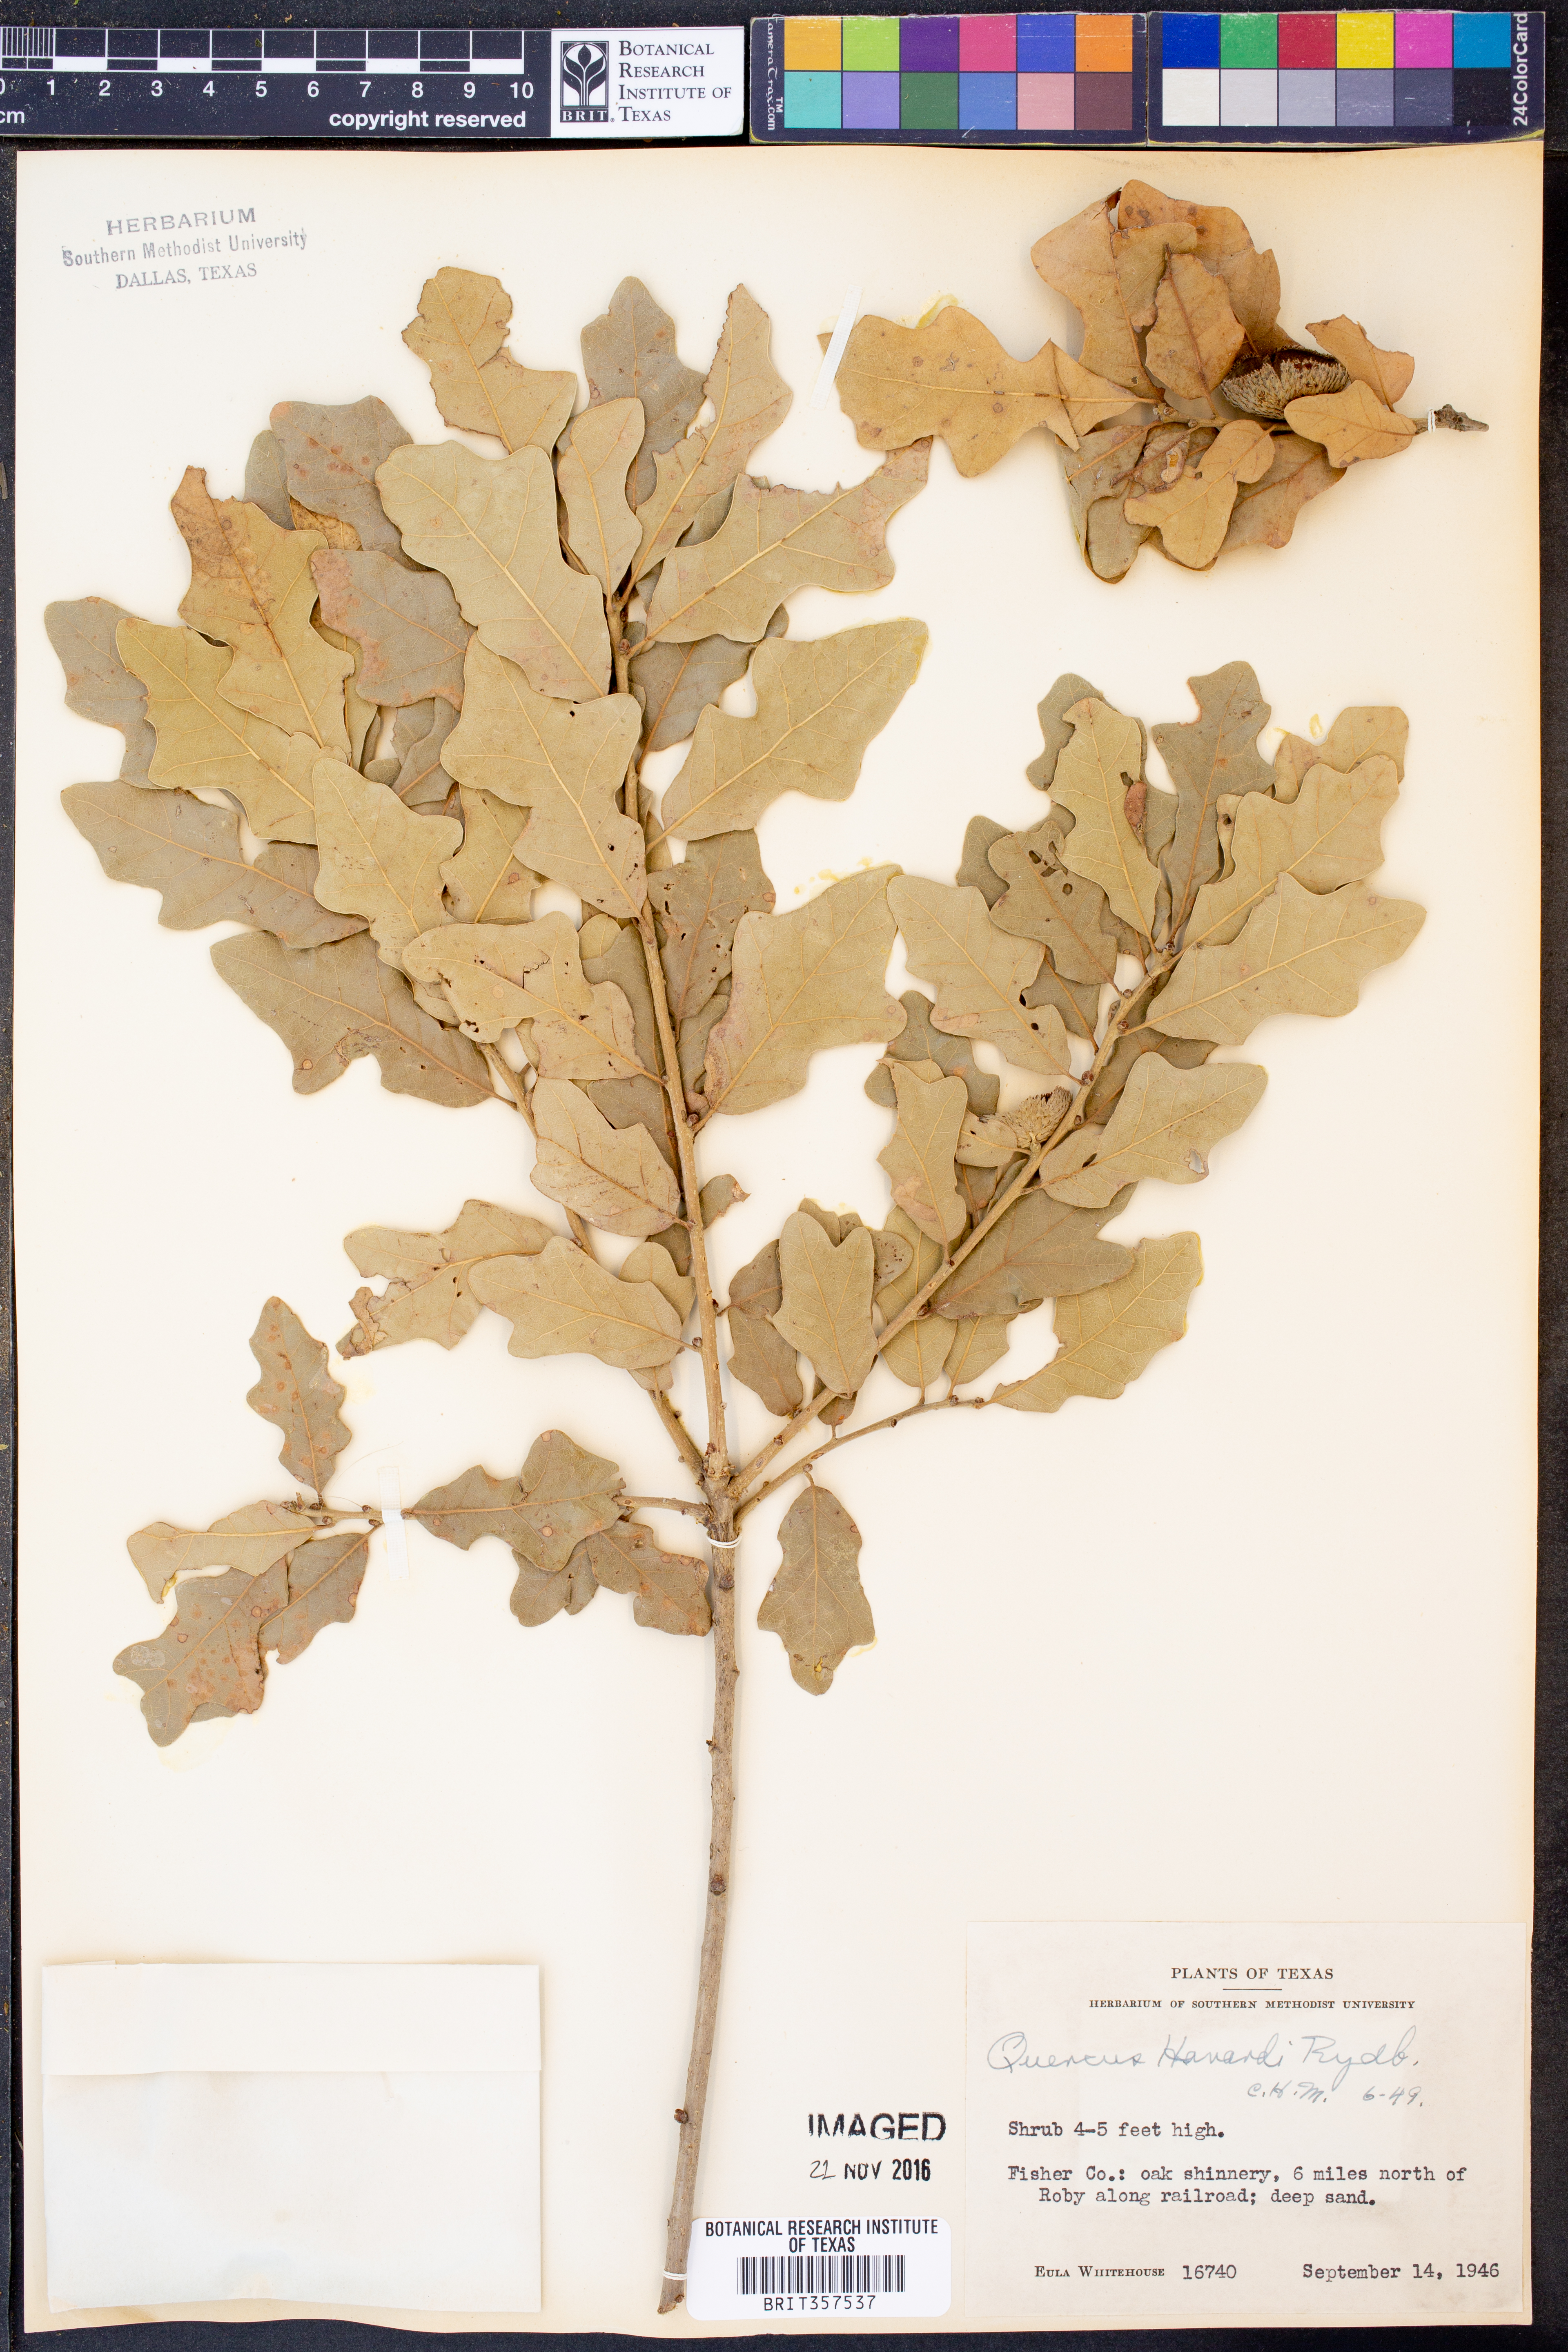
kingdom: Plantae
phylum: Tracheophyta
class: Magnoliopsida
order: Fagales
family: Fagaceae
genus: Quercus
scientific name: Quercus havardii
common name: Shinnery oak
